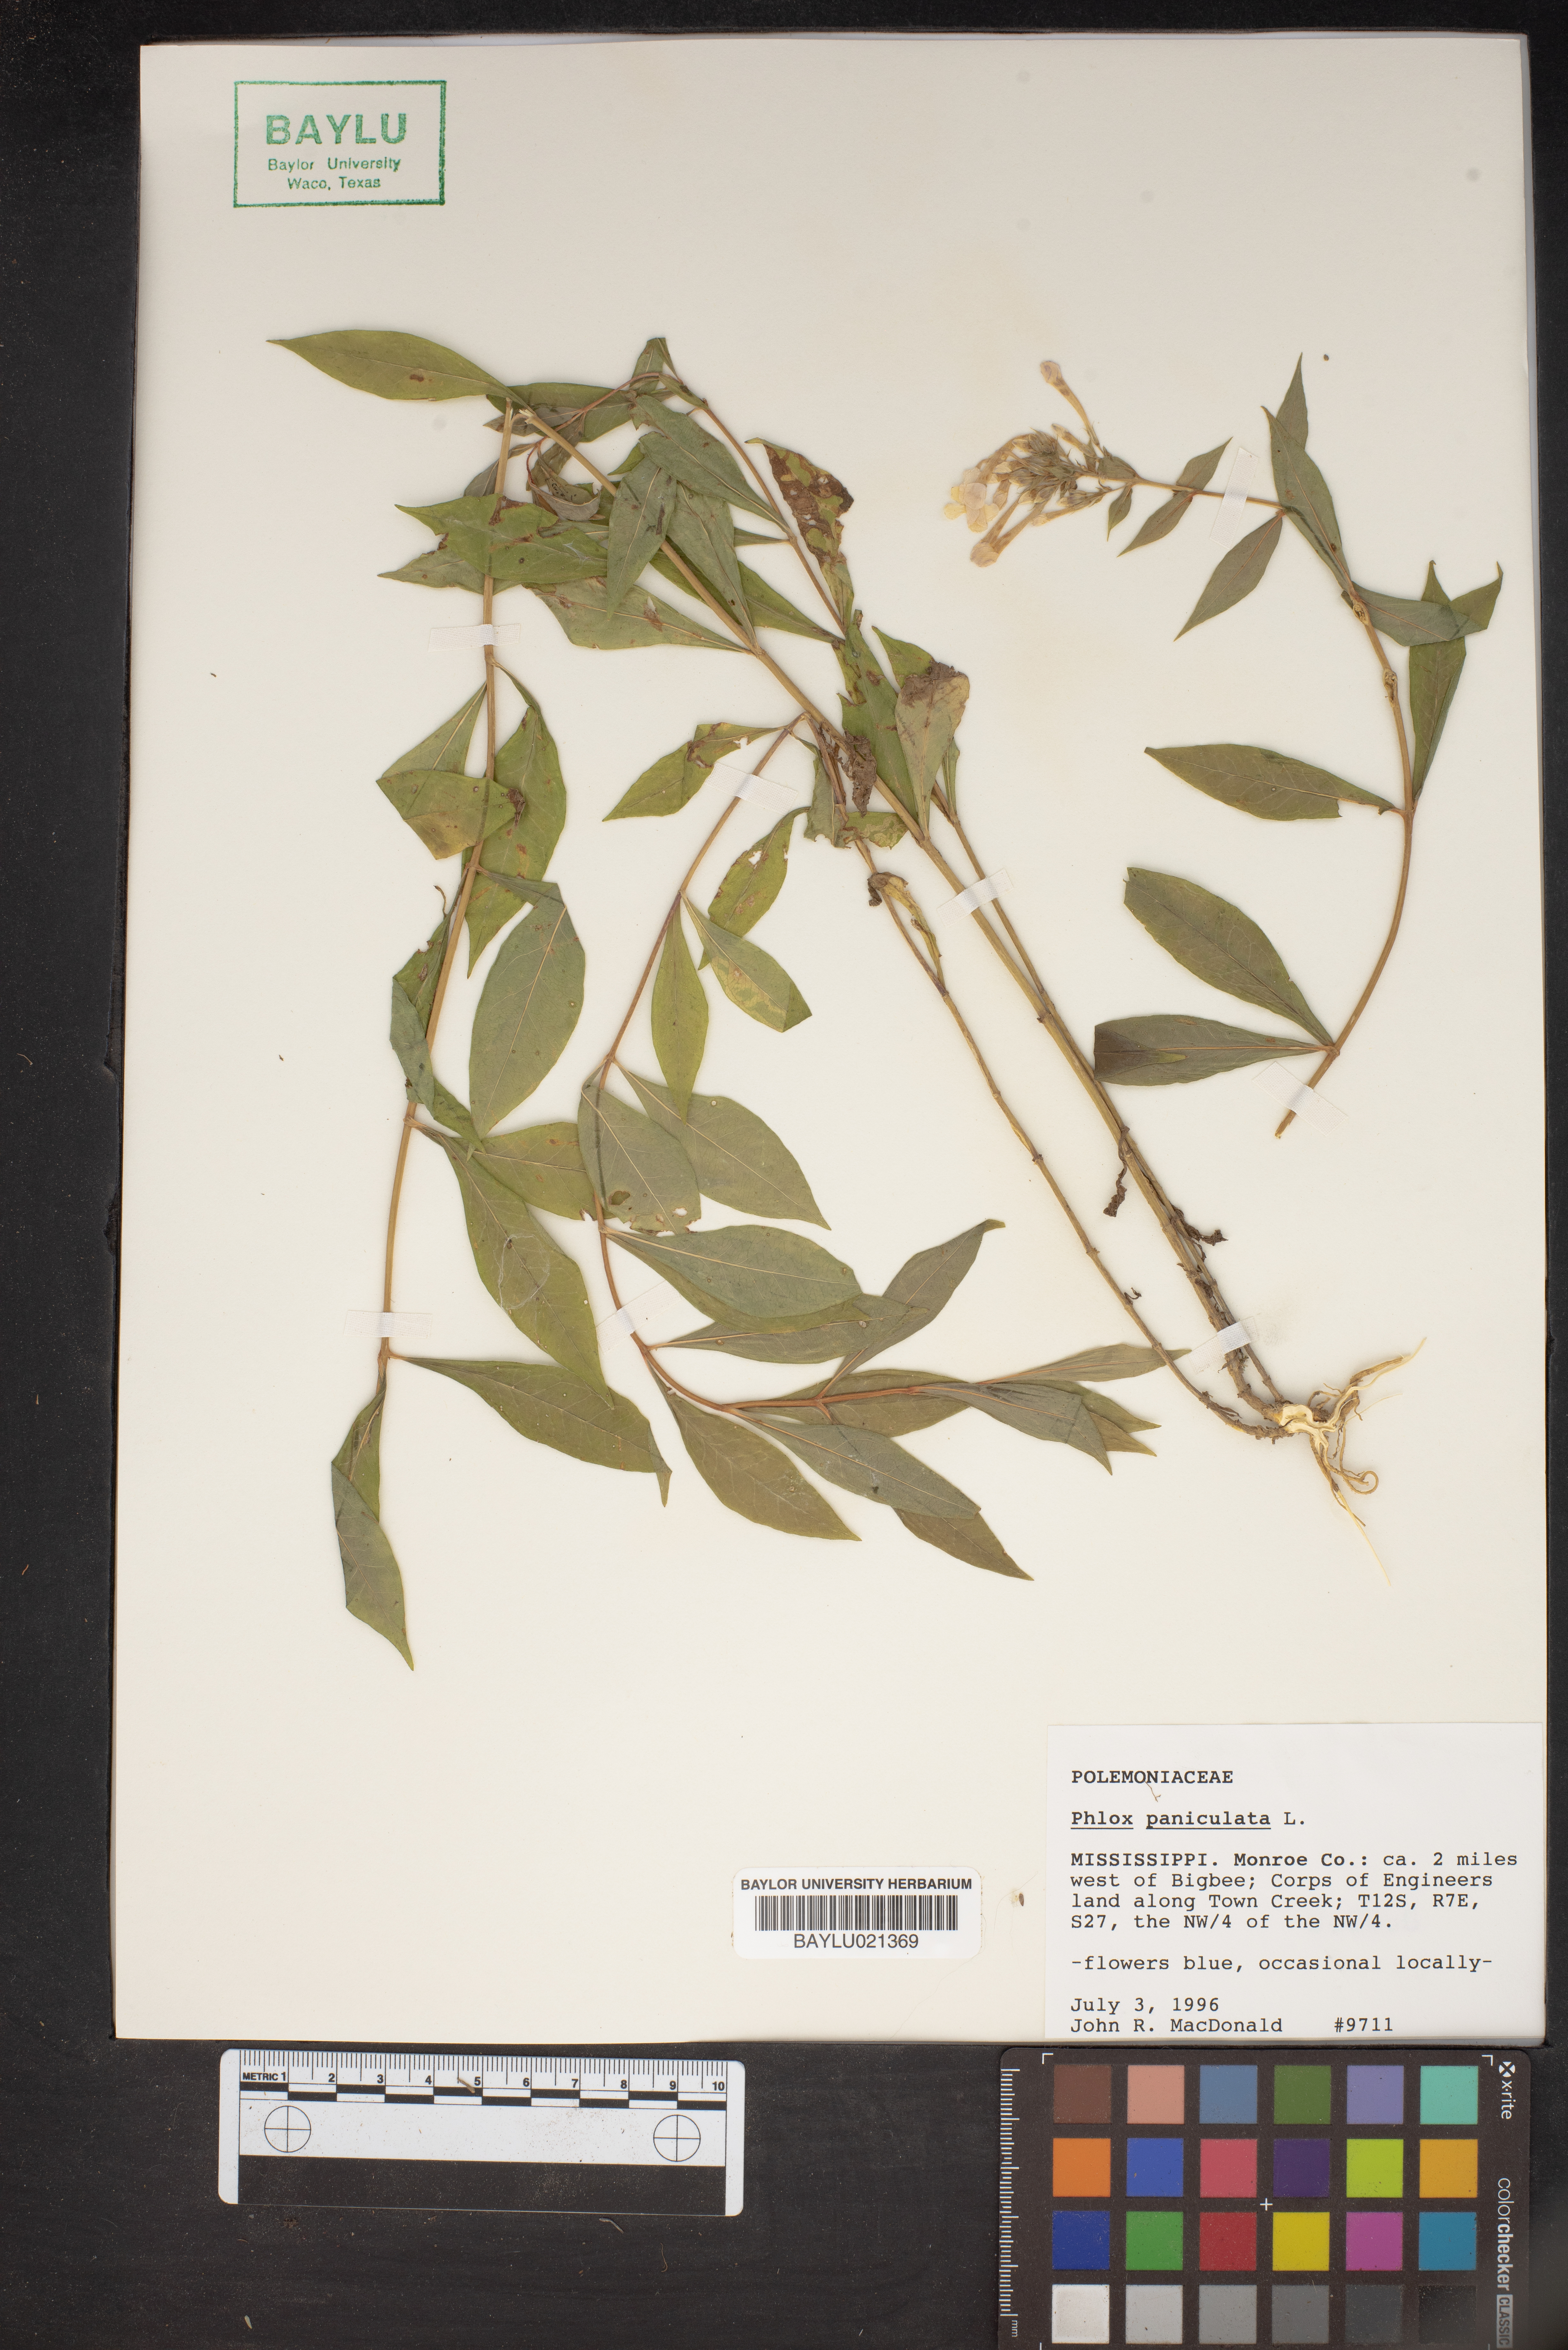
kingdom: Plantae
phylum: Tracheophyta
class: Magnoliopsida
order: Ericales
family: Polemoniaceae
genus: Phlox
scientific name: Phlox paniculata
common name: Fall phlox
